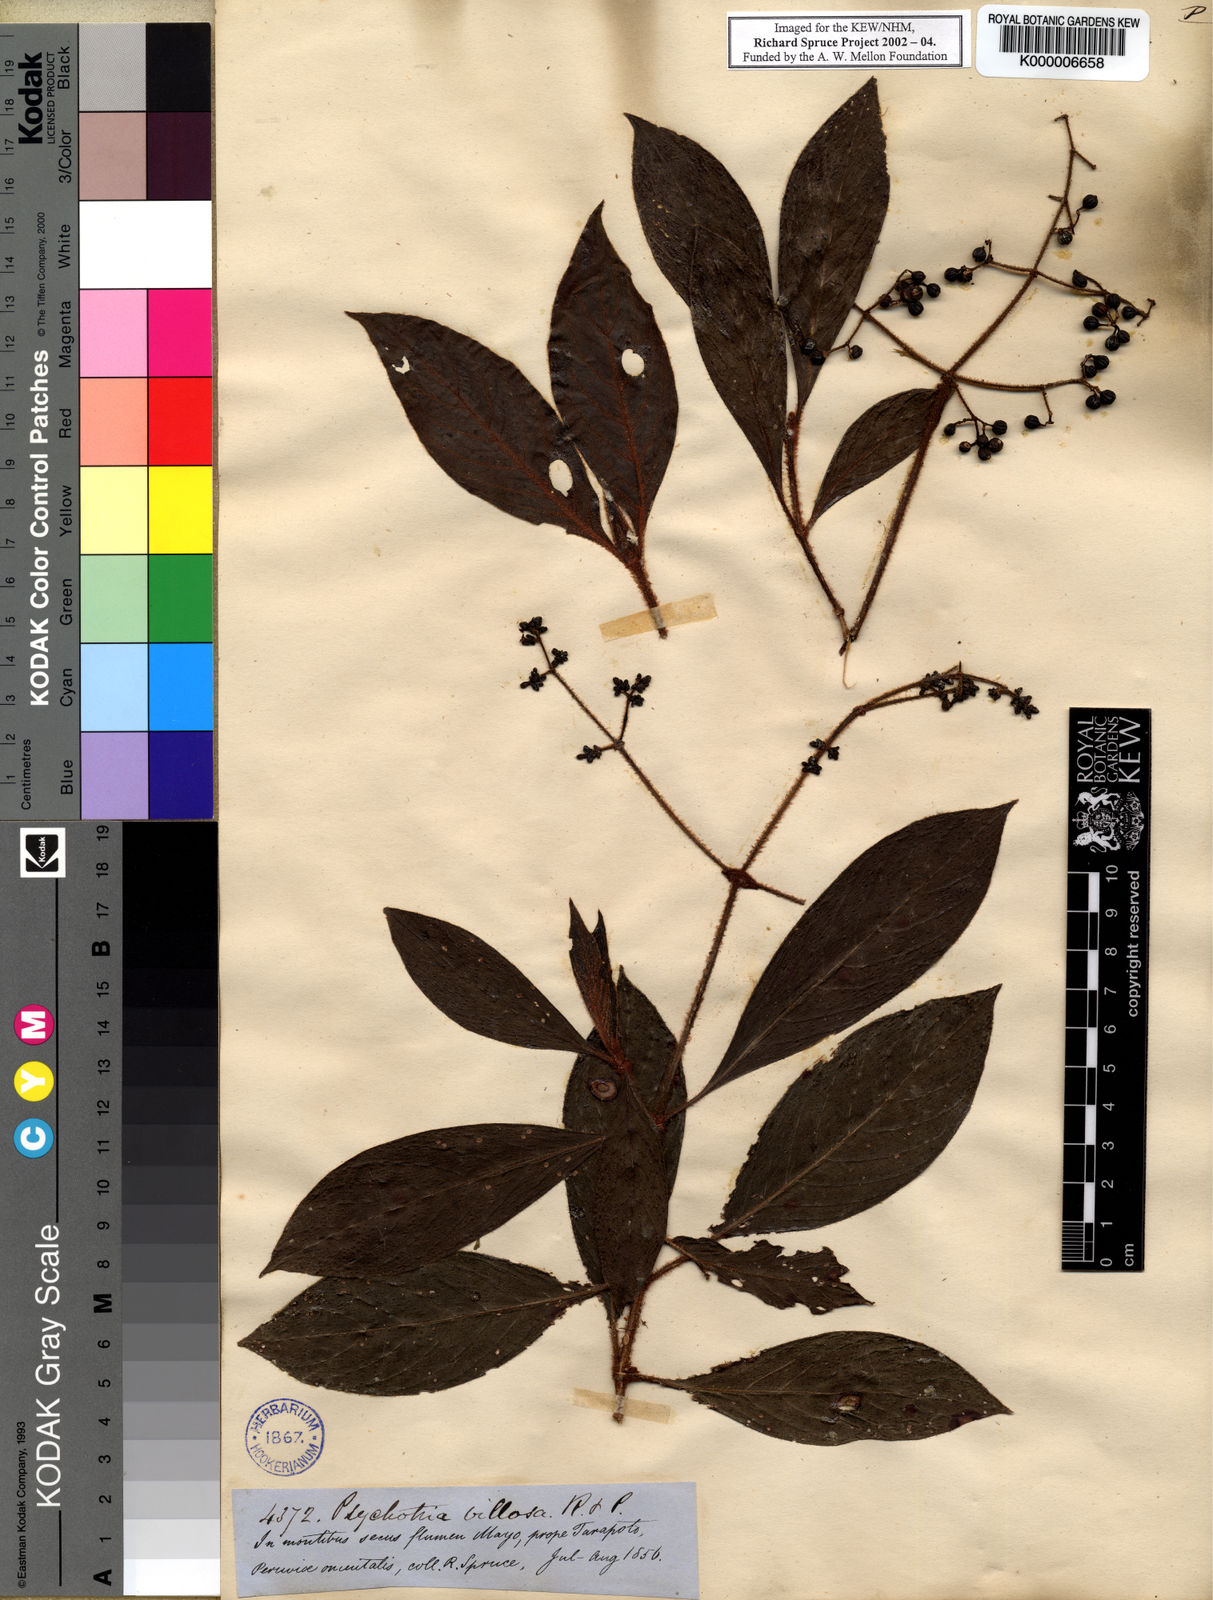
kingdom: Plantae
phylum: Tracheophyta
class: Magnoliopsida
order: Gentianales
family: Rubiaceae
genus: Psychotria
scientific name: Psychotria villosa
